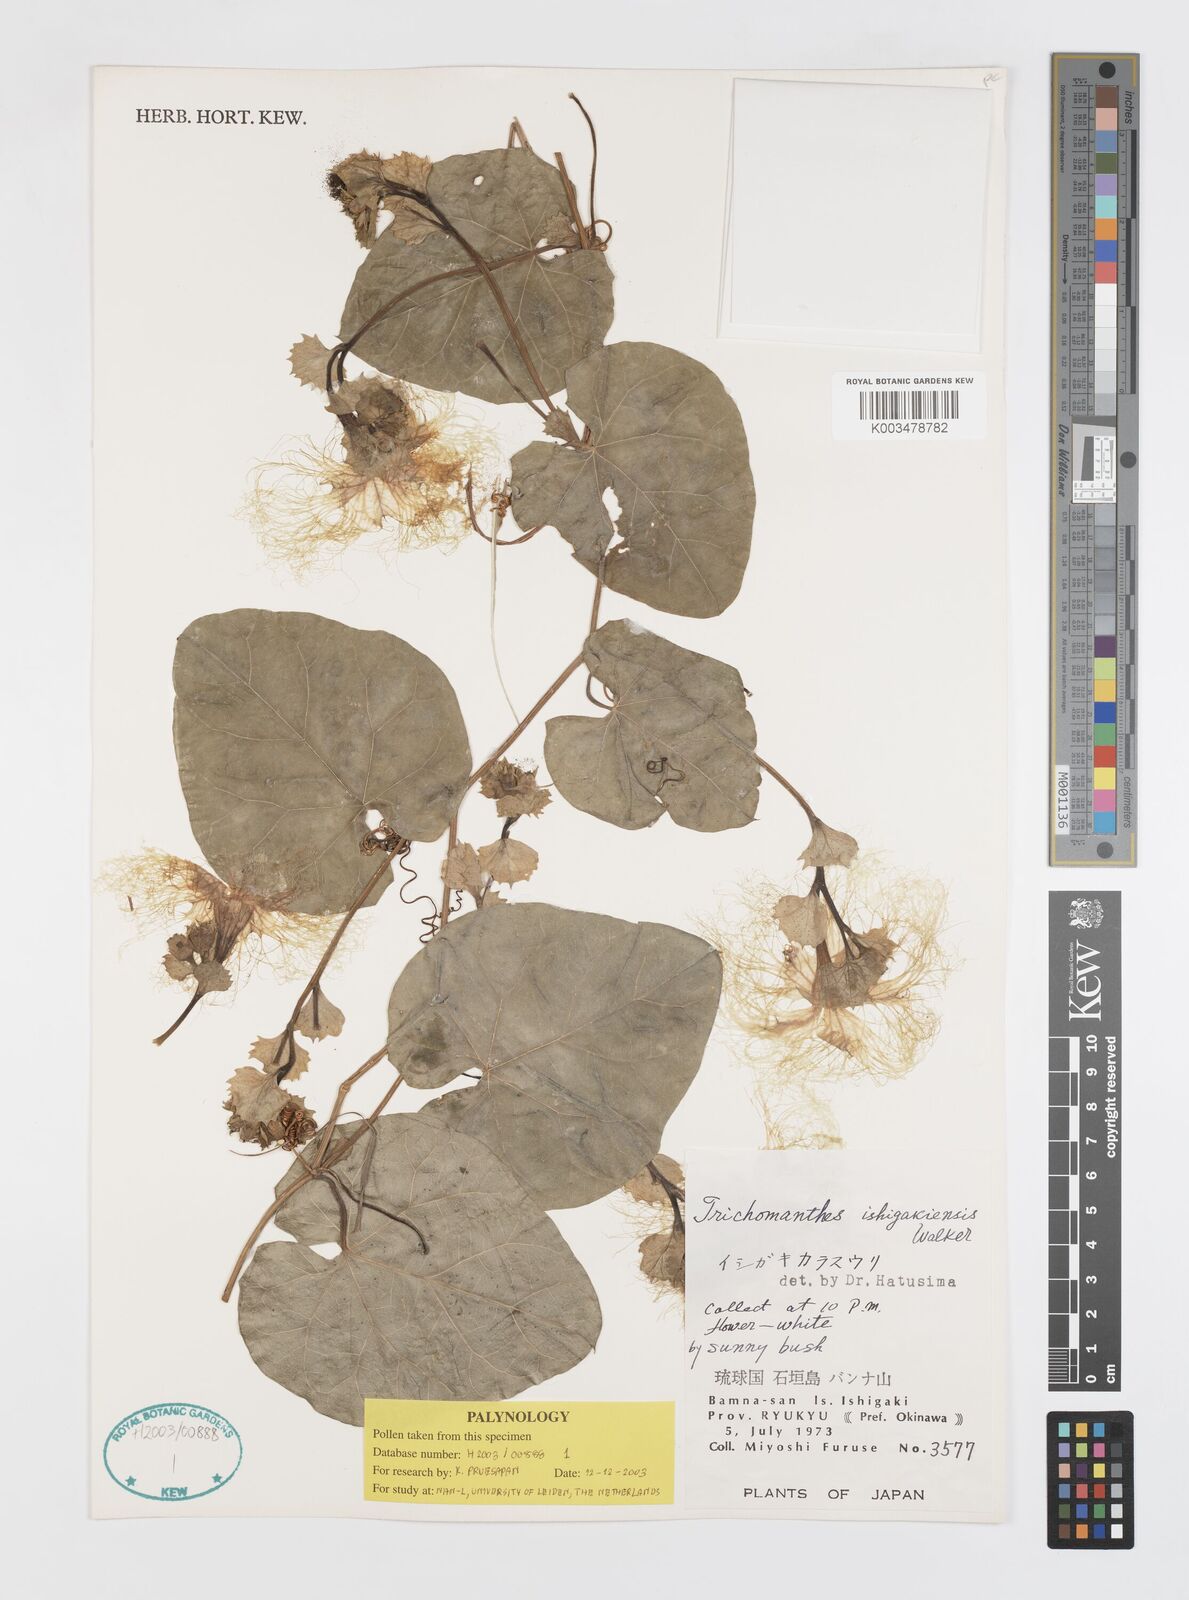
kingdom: Plantae
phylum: Tracheophyta
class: Magnoliopsida
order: Cucurbitales
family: Cucurbitaceae
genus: Trichosanthes
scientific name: Trichosanthes ishigakiensis
